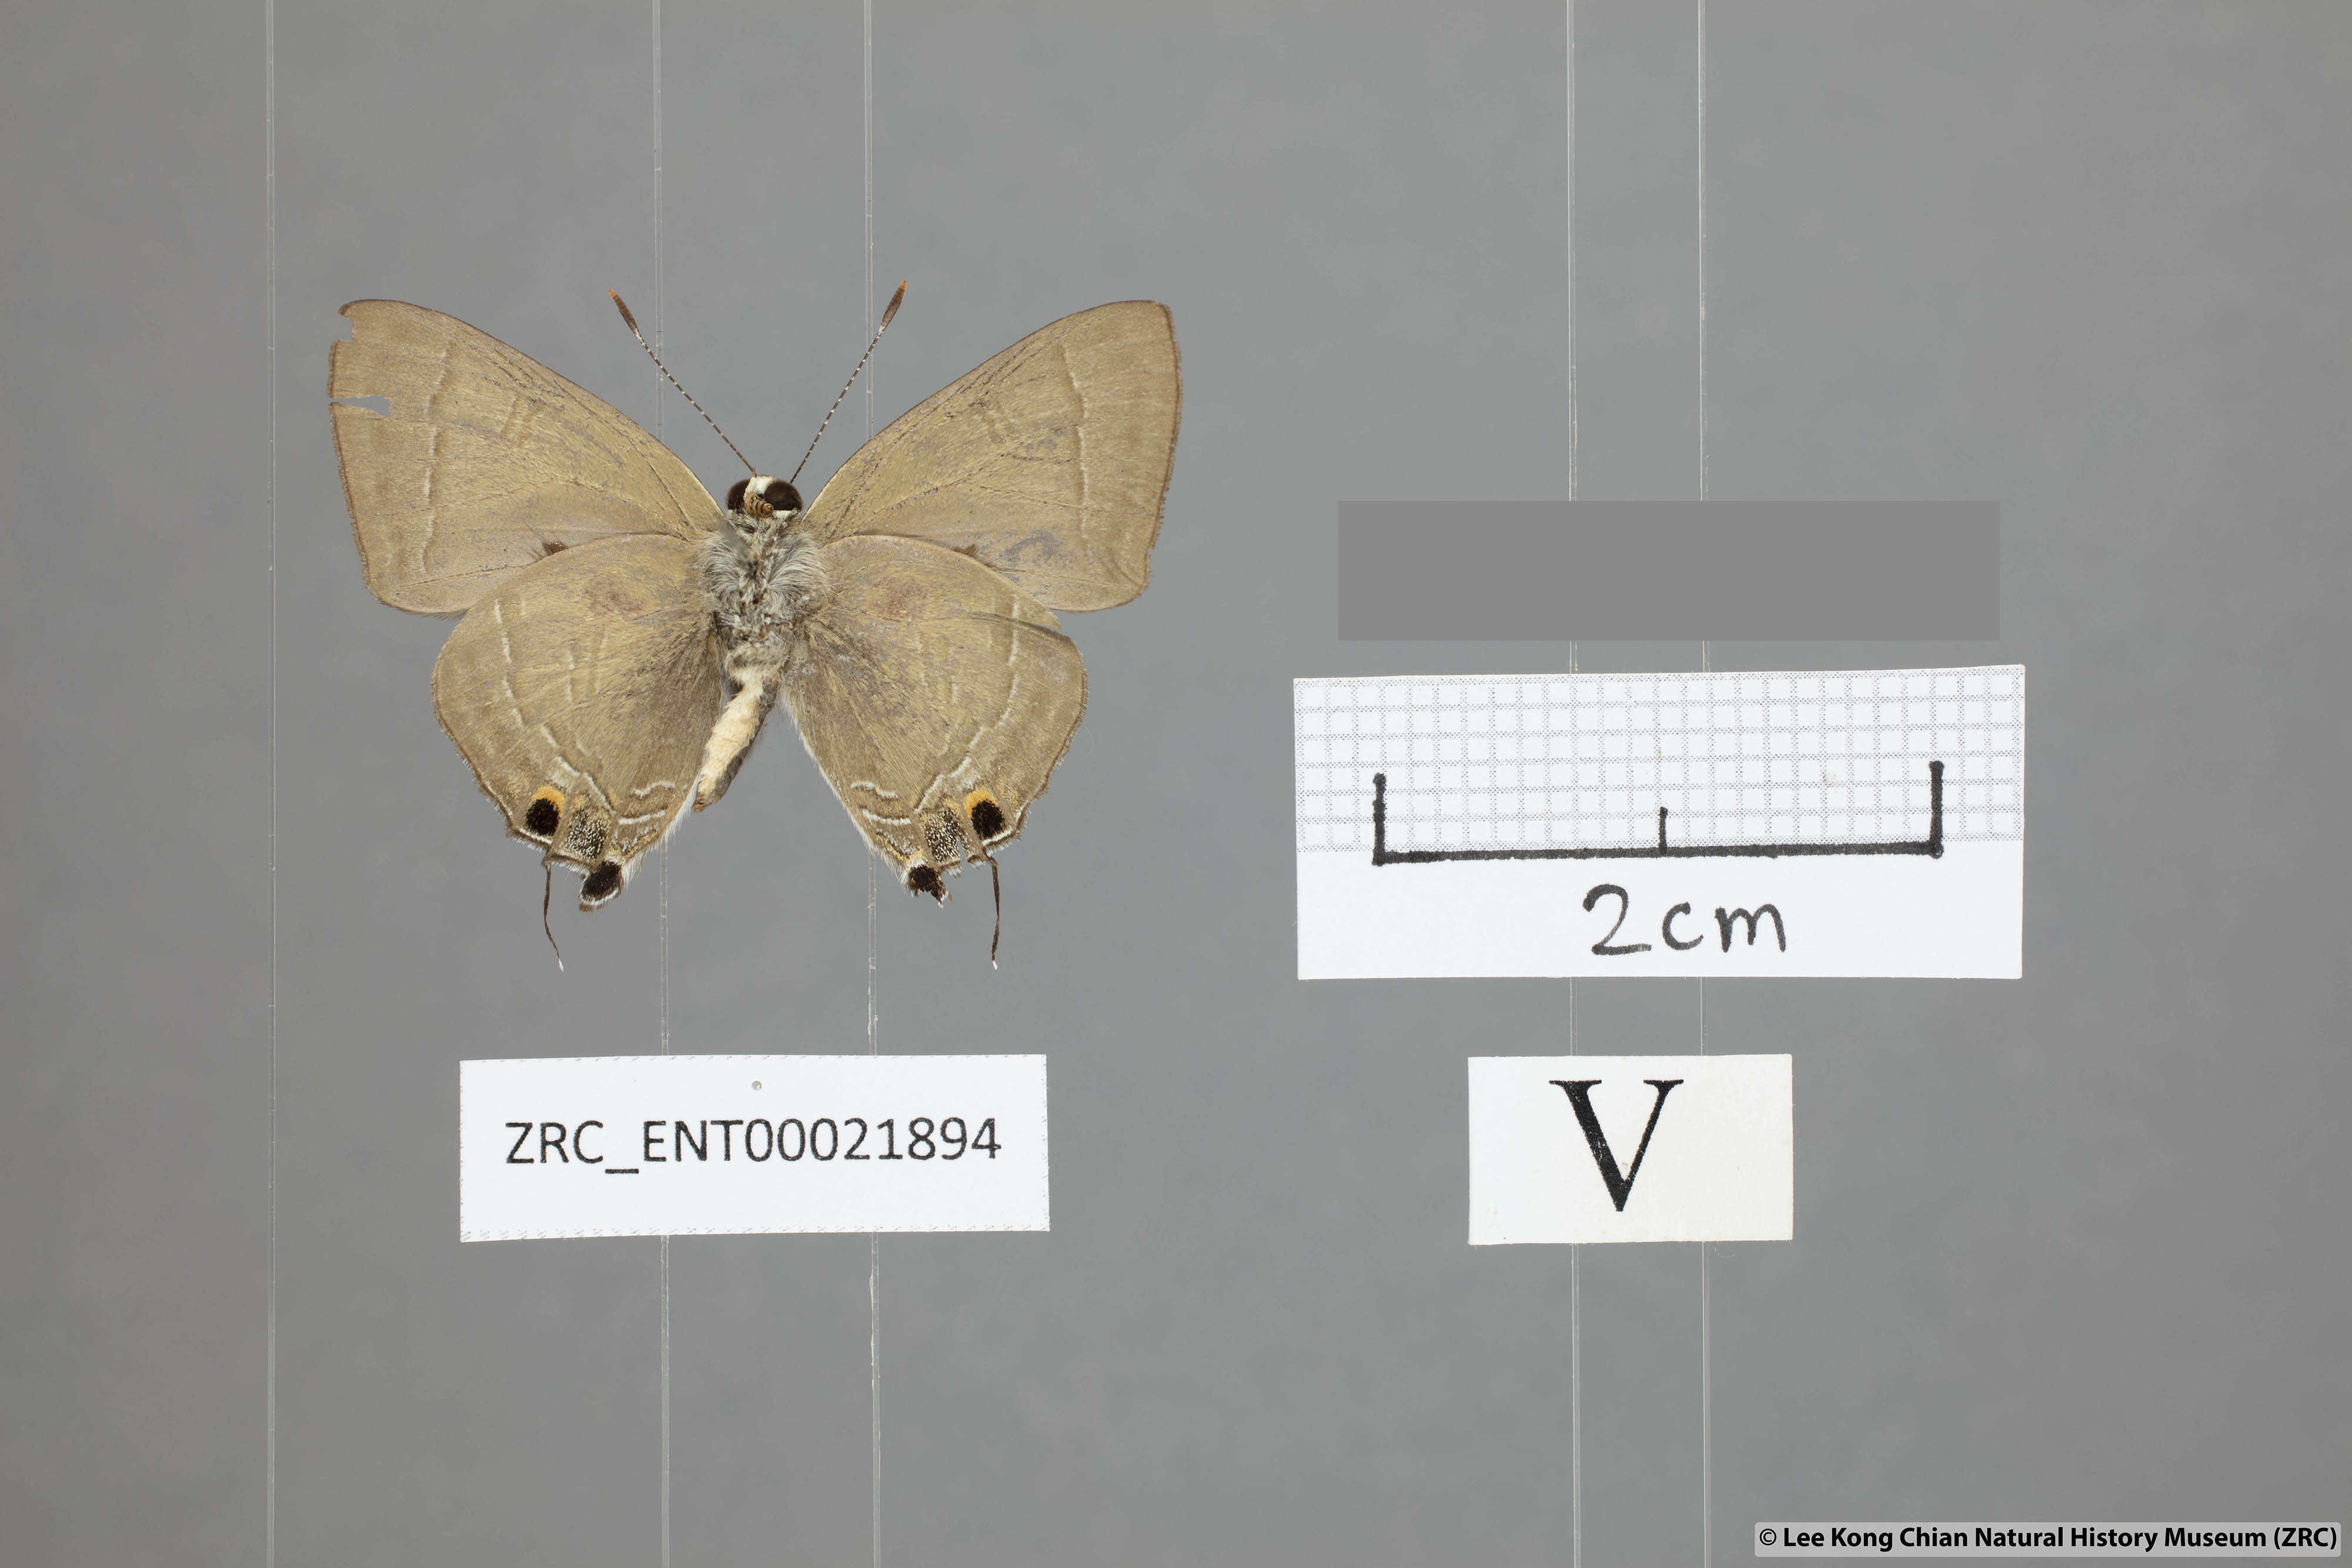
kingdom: Animalia
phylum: Arthropoda
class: Insecta
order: Lepidoptera
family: Lycaenidae
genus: Rapala
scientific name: Rapala scintilla
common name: Scarce slate flash
